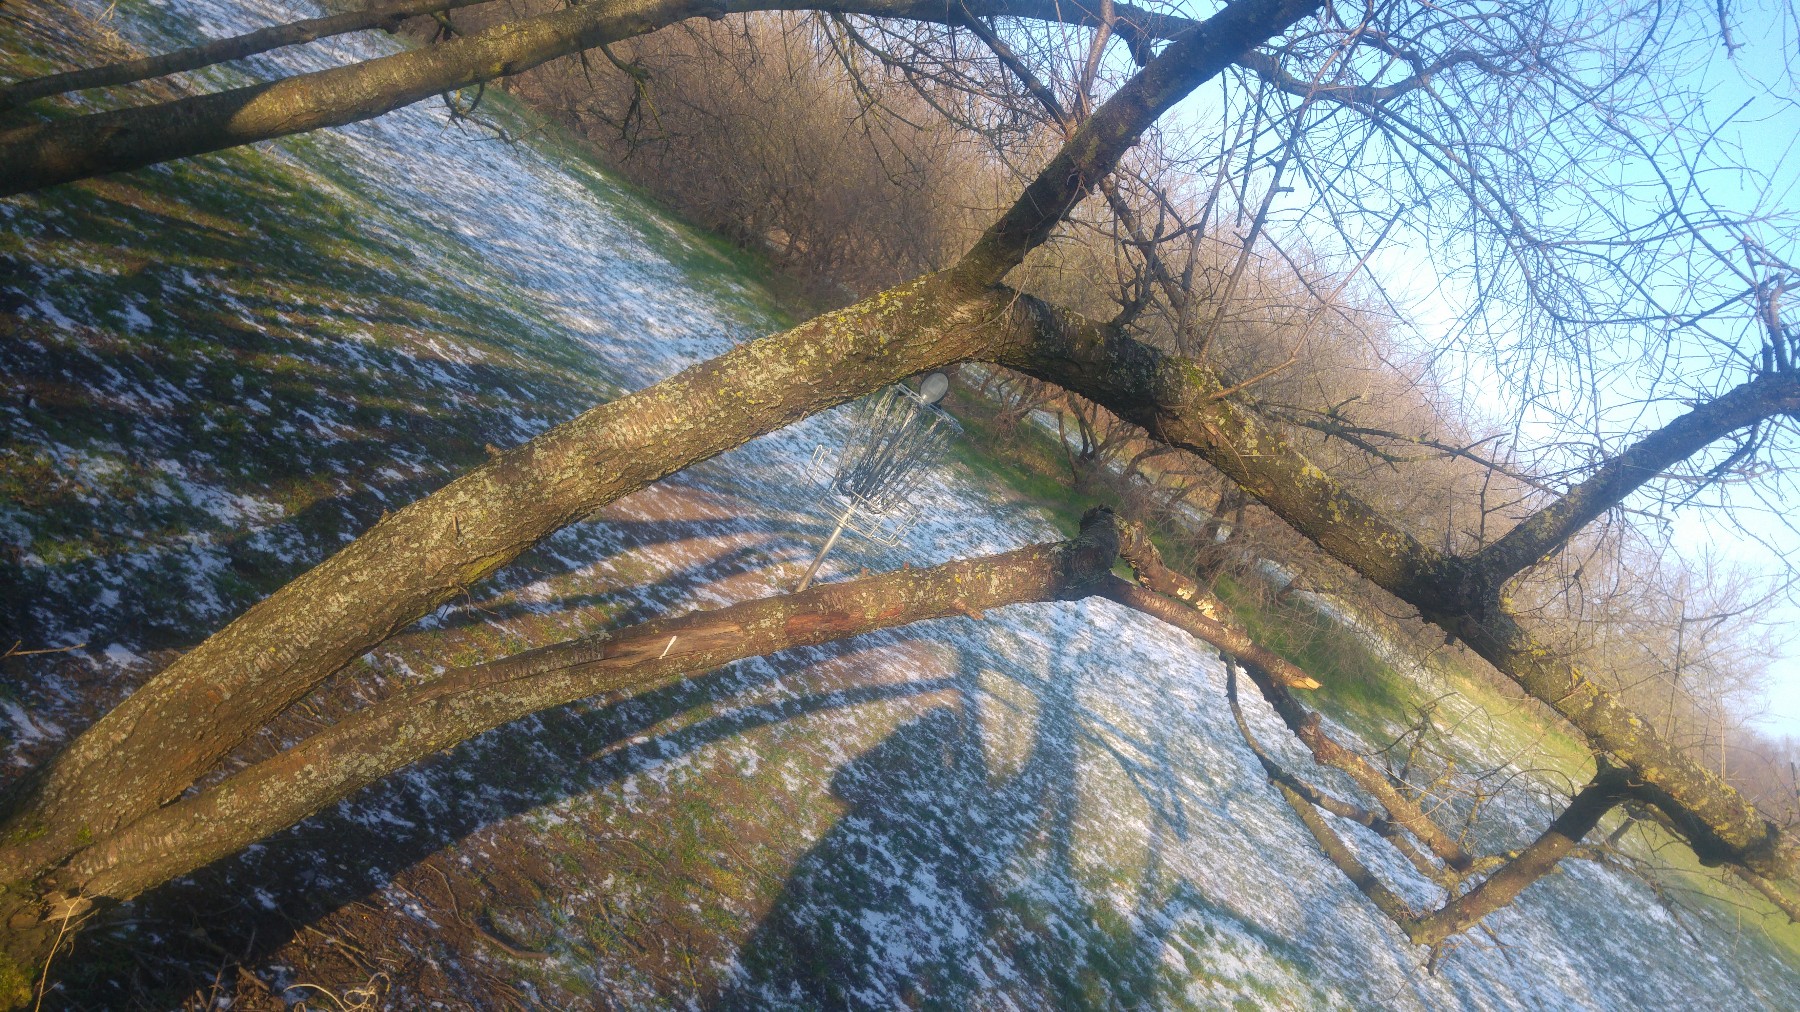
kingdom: Fungi
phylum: Basidiomycota
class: Agaricomycetes
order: Russulales
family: Stereaceae
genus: Stereum
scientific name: Stereum hirsutum
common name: håret lædersvamp
